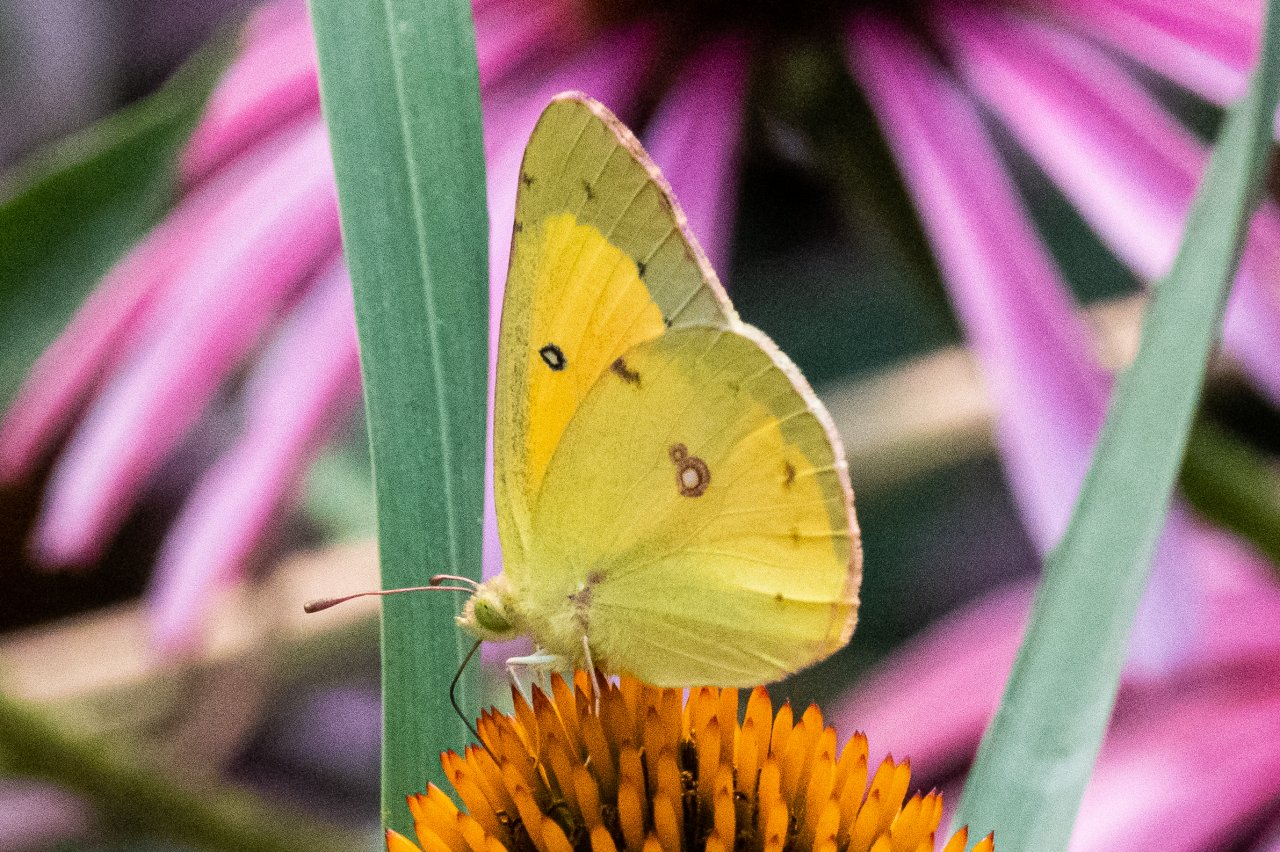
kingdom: Animalia
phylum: Arthropoda
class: Insecta
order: Lepidoptera
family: Pieridae
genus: Colias
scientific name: Colias eurytheme
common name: Orange Sulphur
